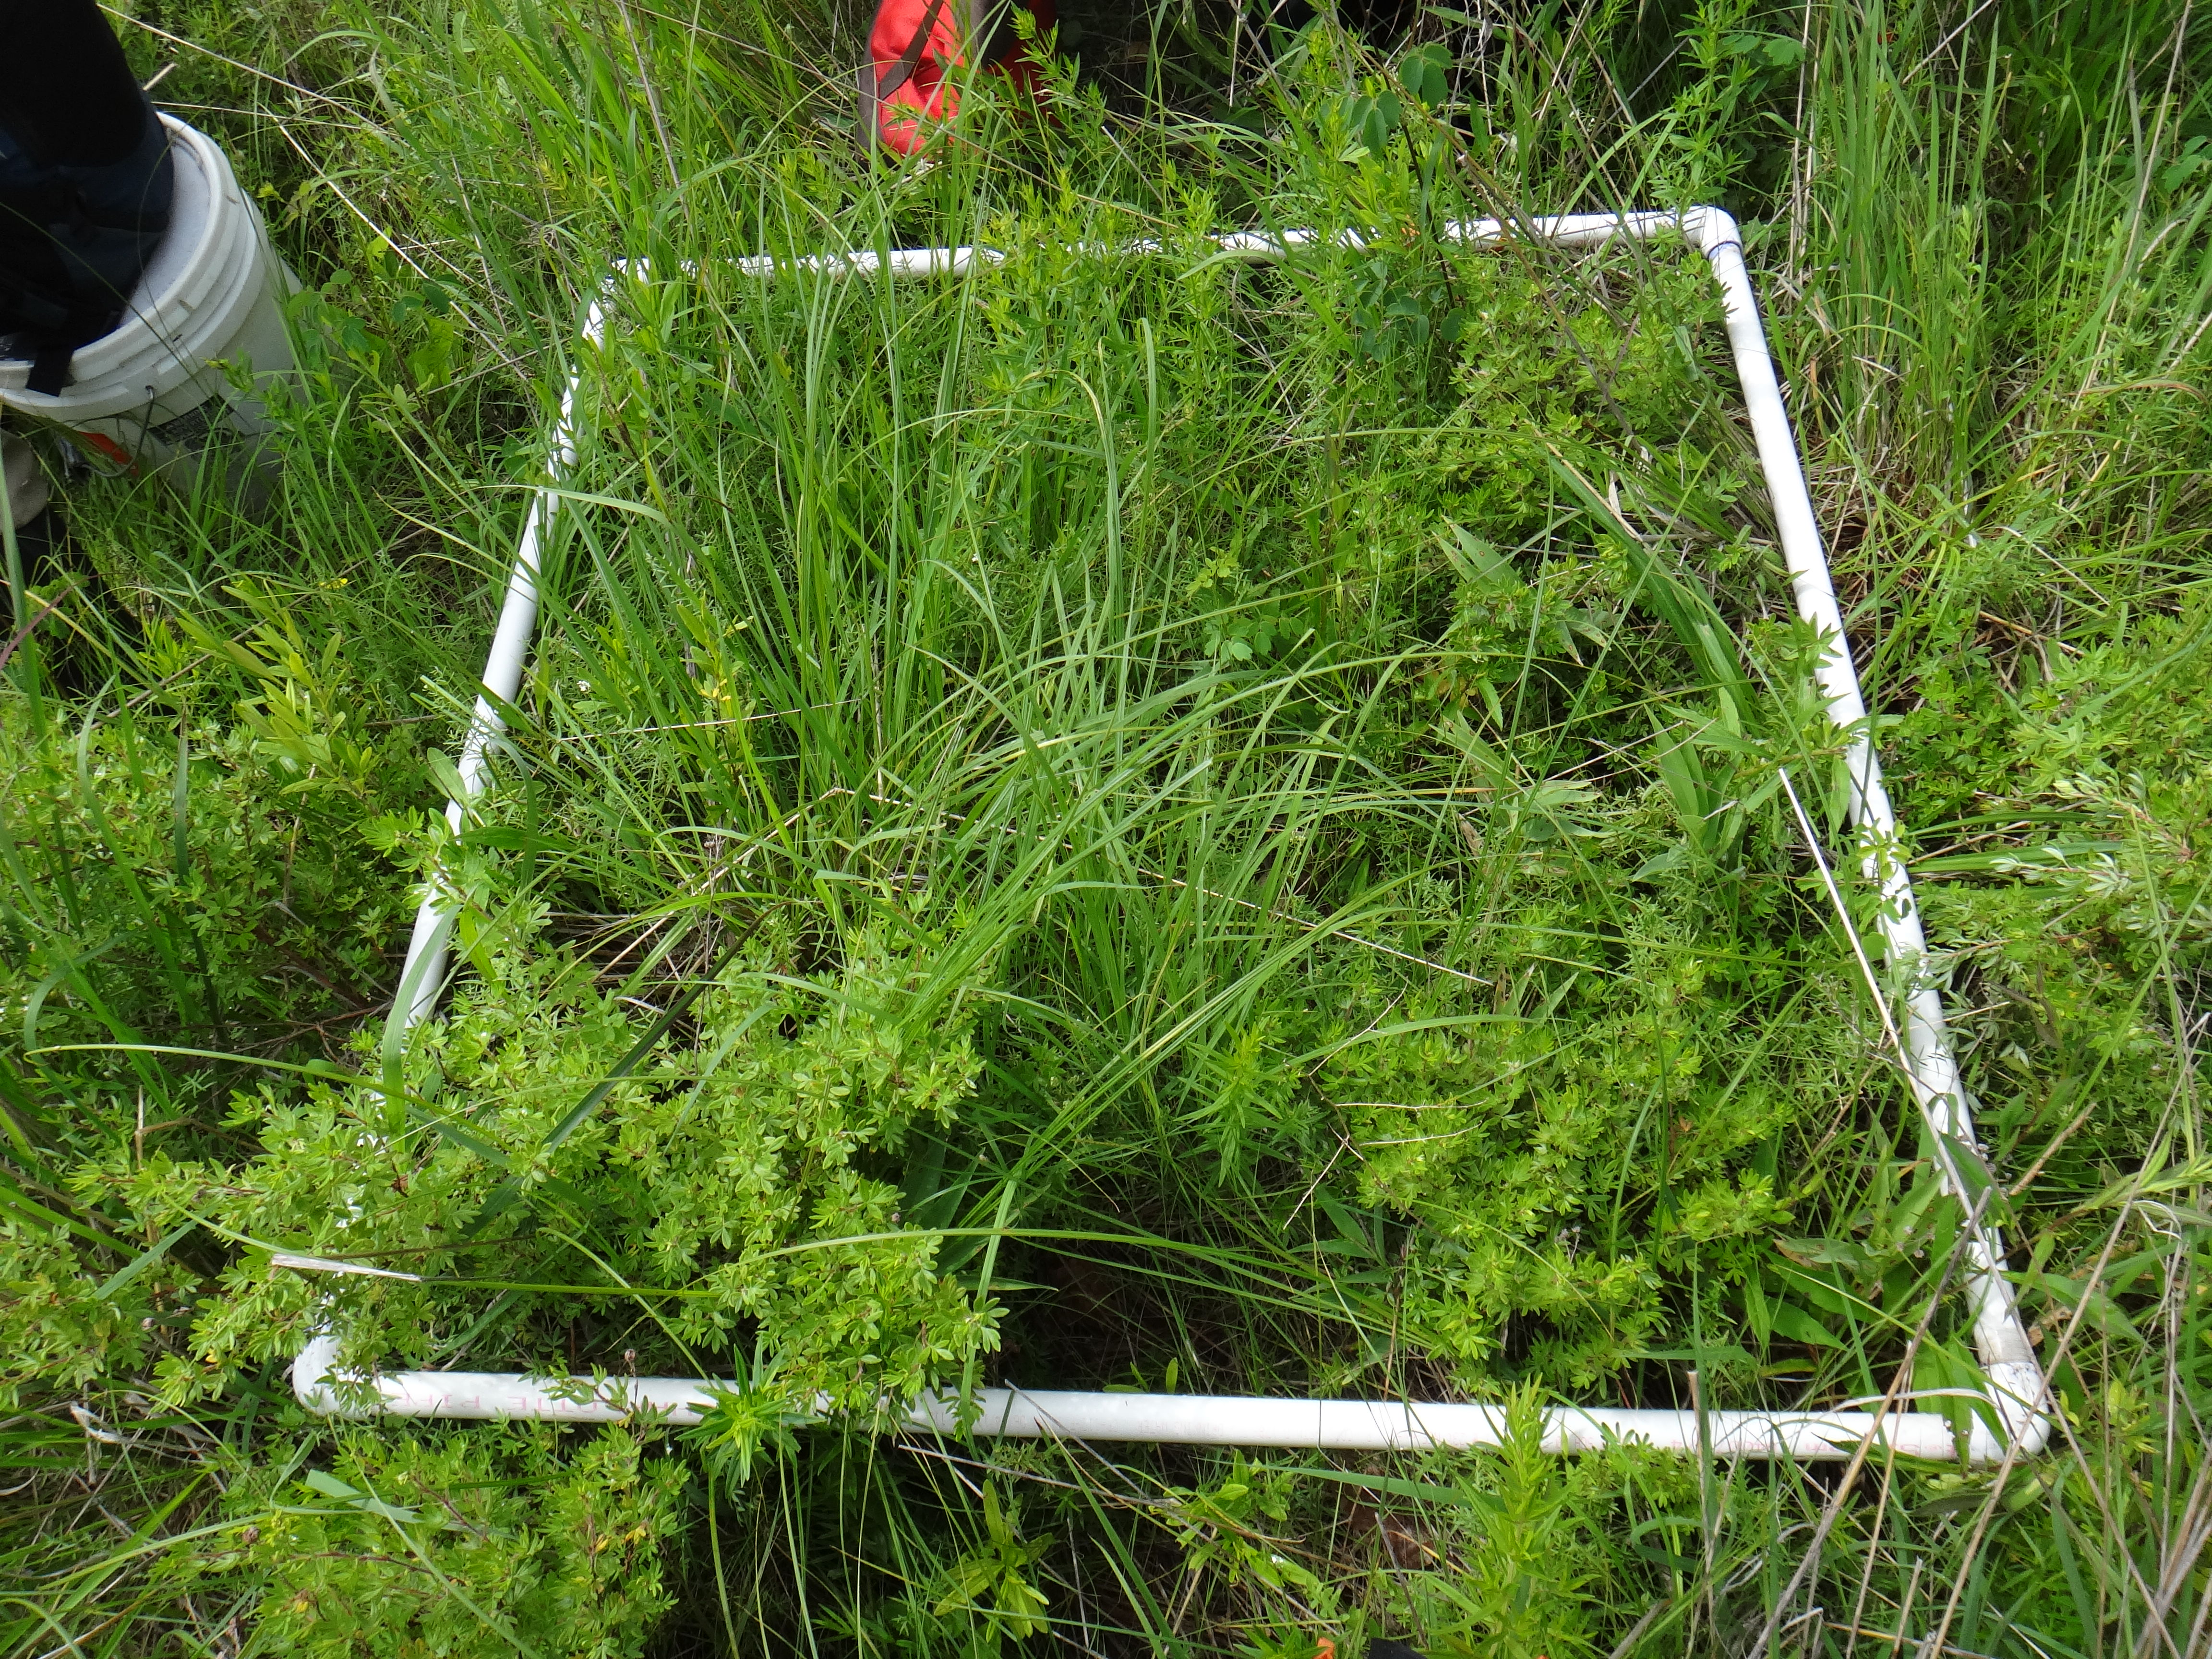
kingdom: Plantae
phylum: Tracheophyta
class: Magnoliopsida
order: Gentianales
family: Rubiaceae
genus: Galium
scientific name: Galium boreale
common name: Northern bedstraw
